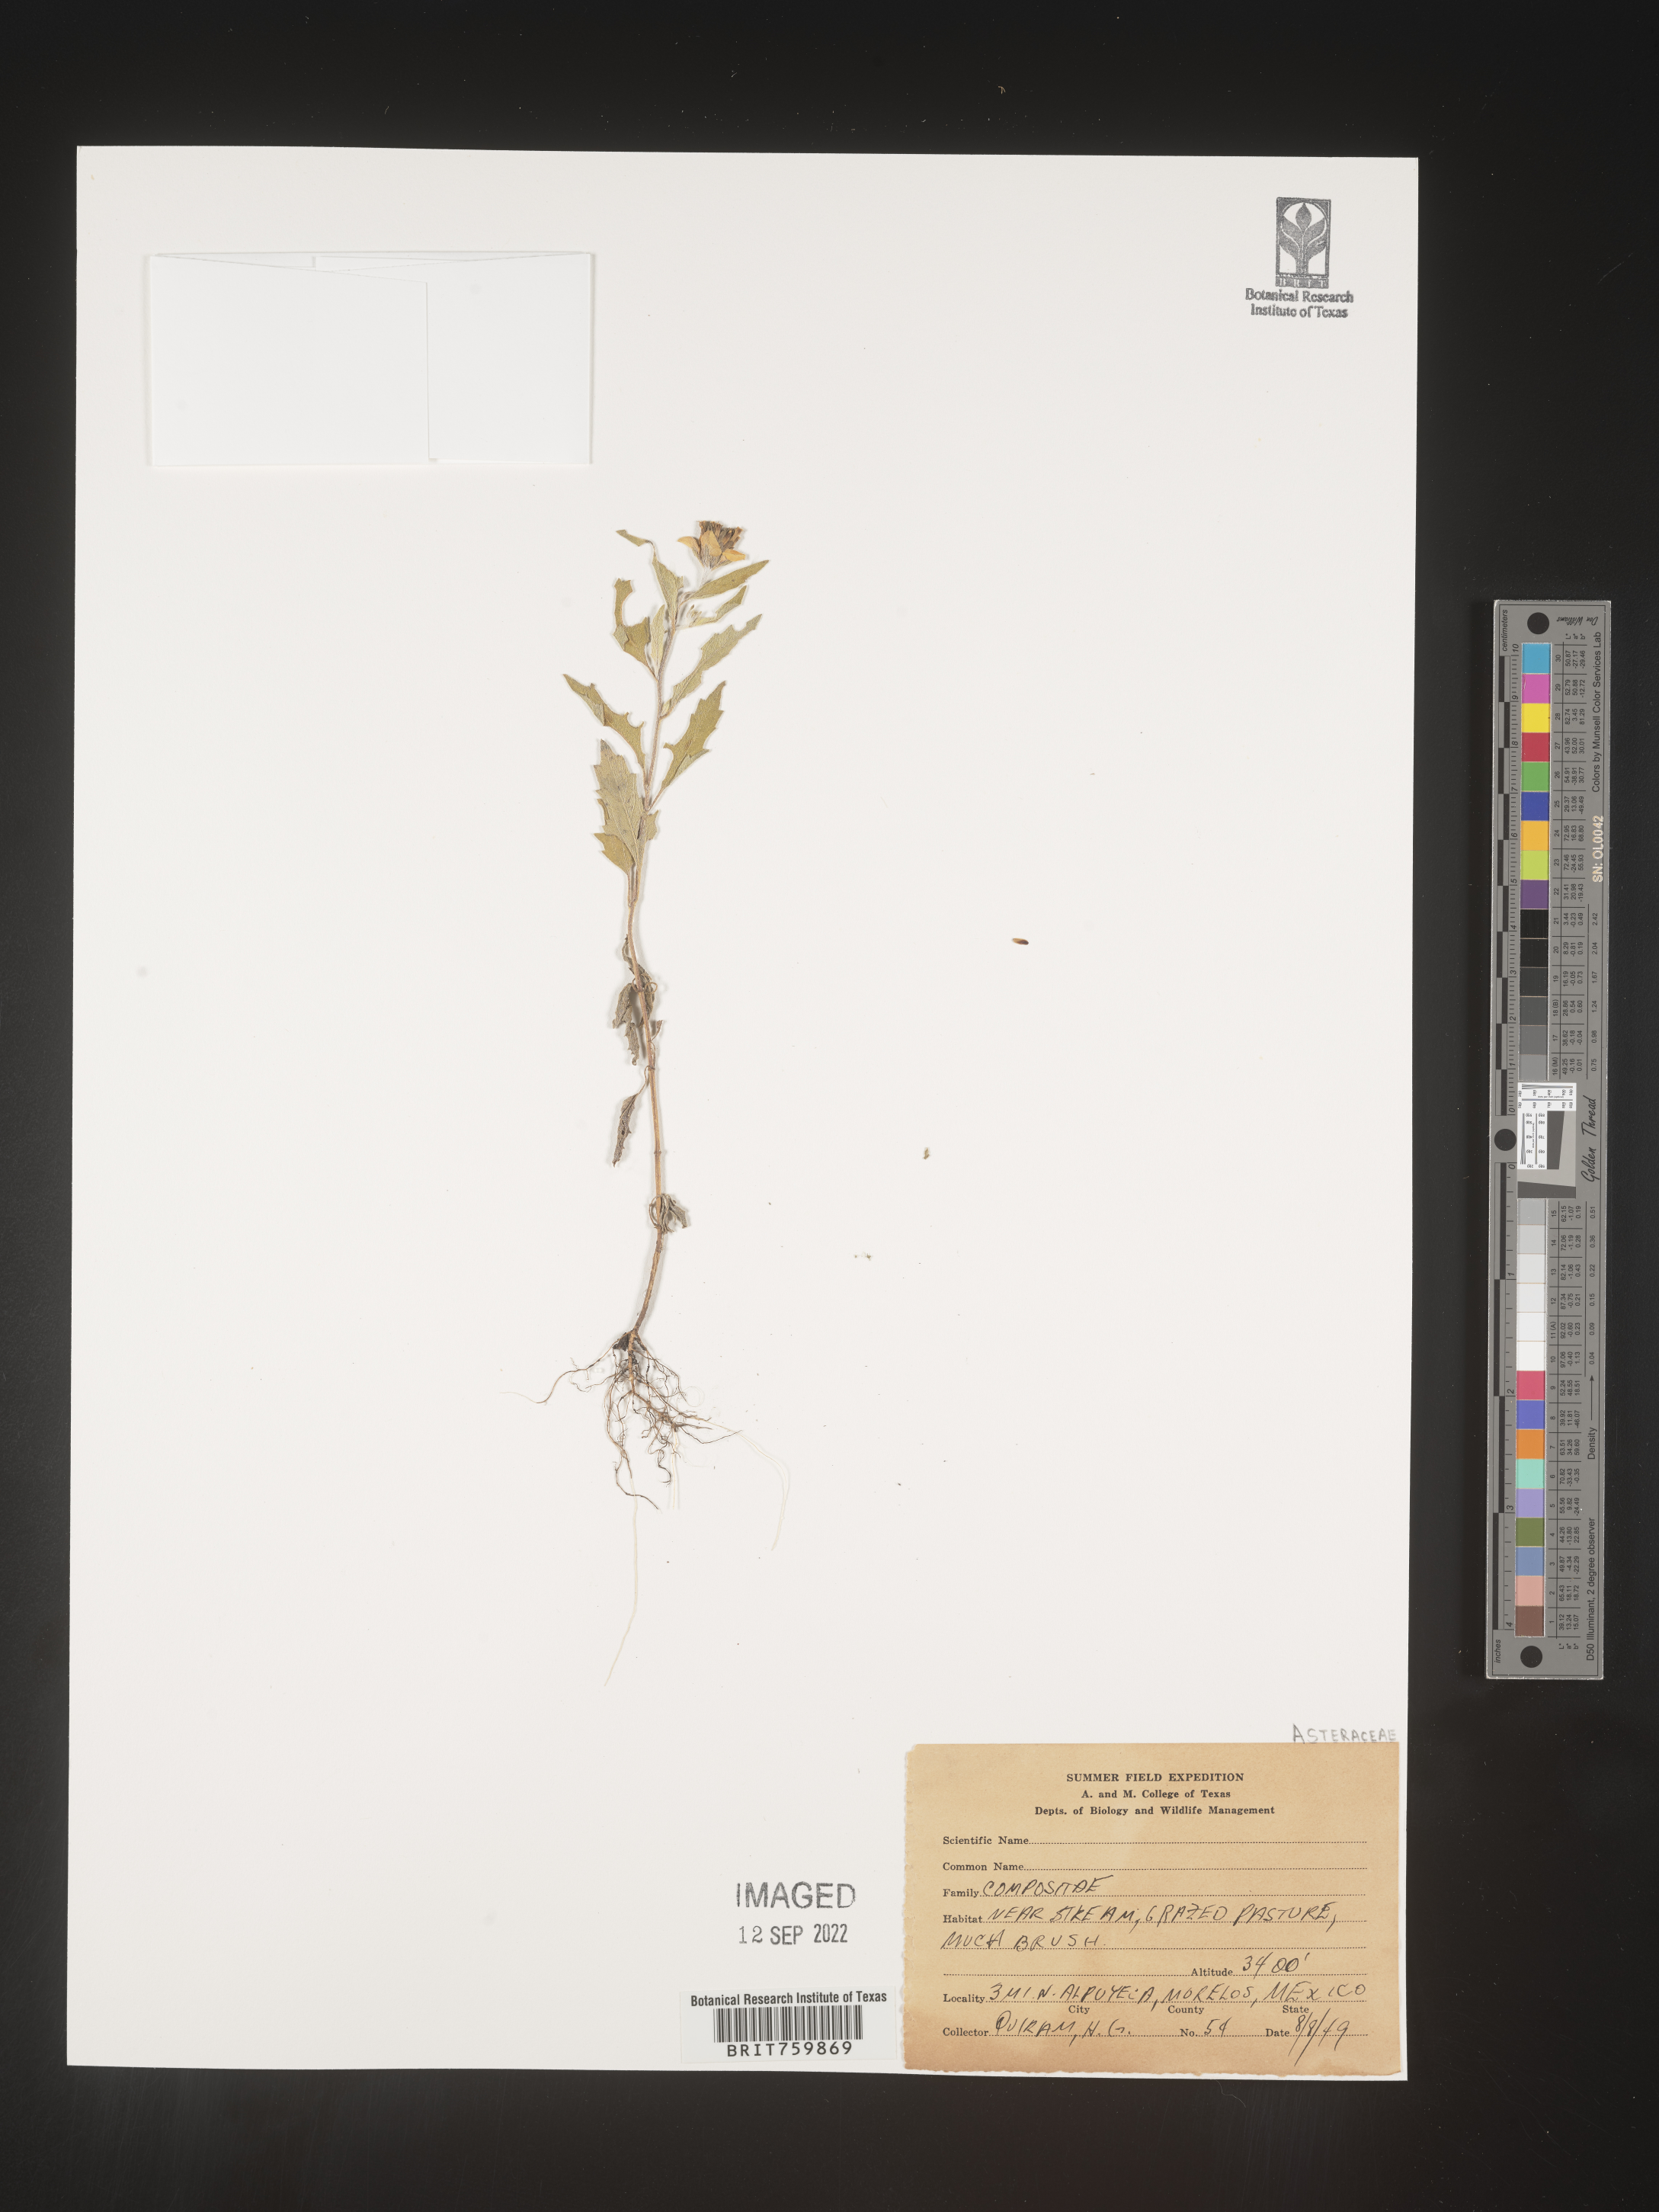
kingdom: Plantae
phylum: Tracheophyta
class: Magnoliopsida
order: Asterales
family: Asteraceae
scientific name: Asteraceae
